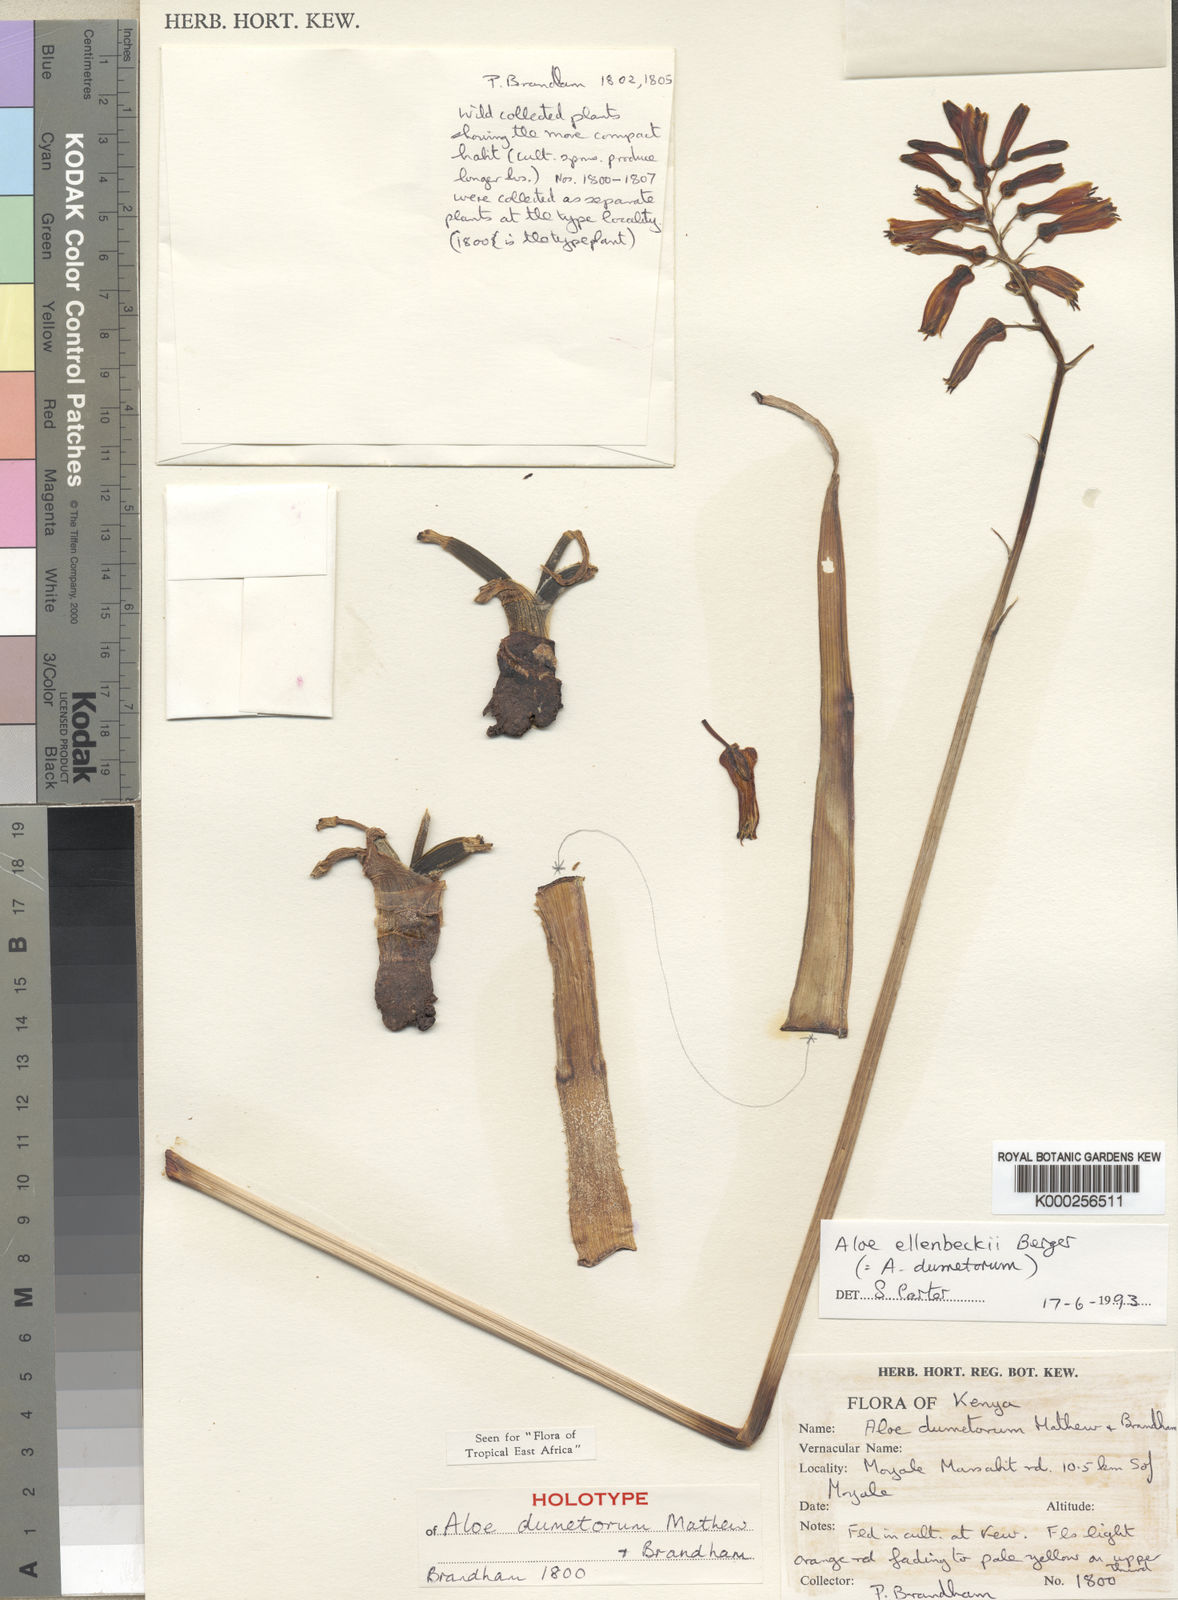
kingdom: Plantae
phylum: Tracheophyta
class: Liliopsida
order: Asparagales
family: Asphodelaceae
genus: Aloe
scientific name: Aloe ellenbeckii
